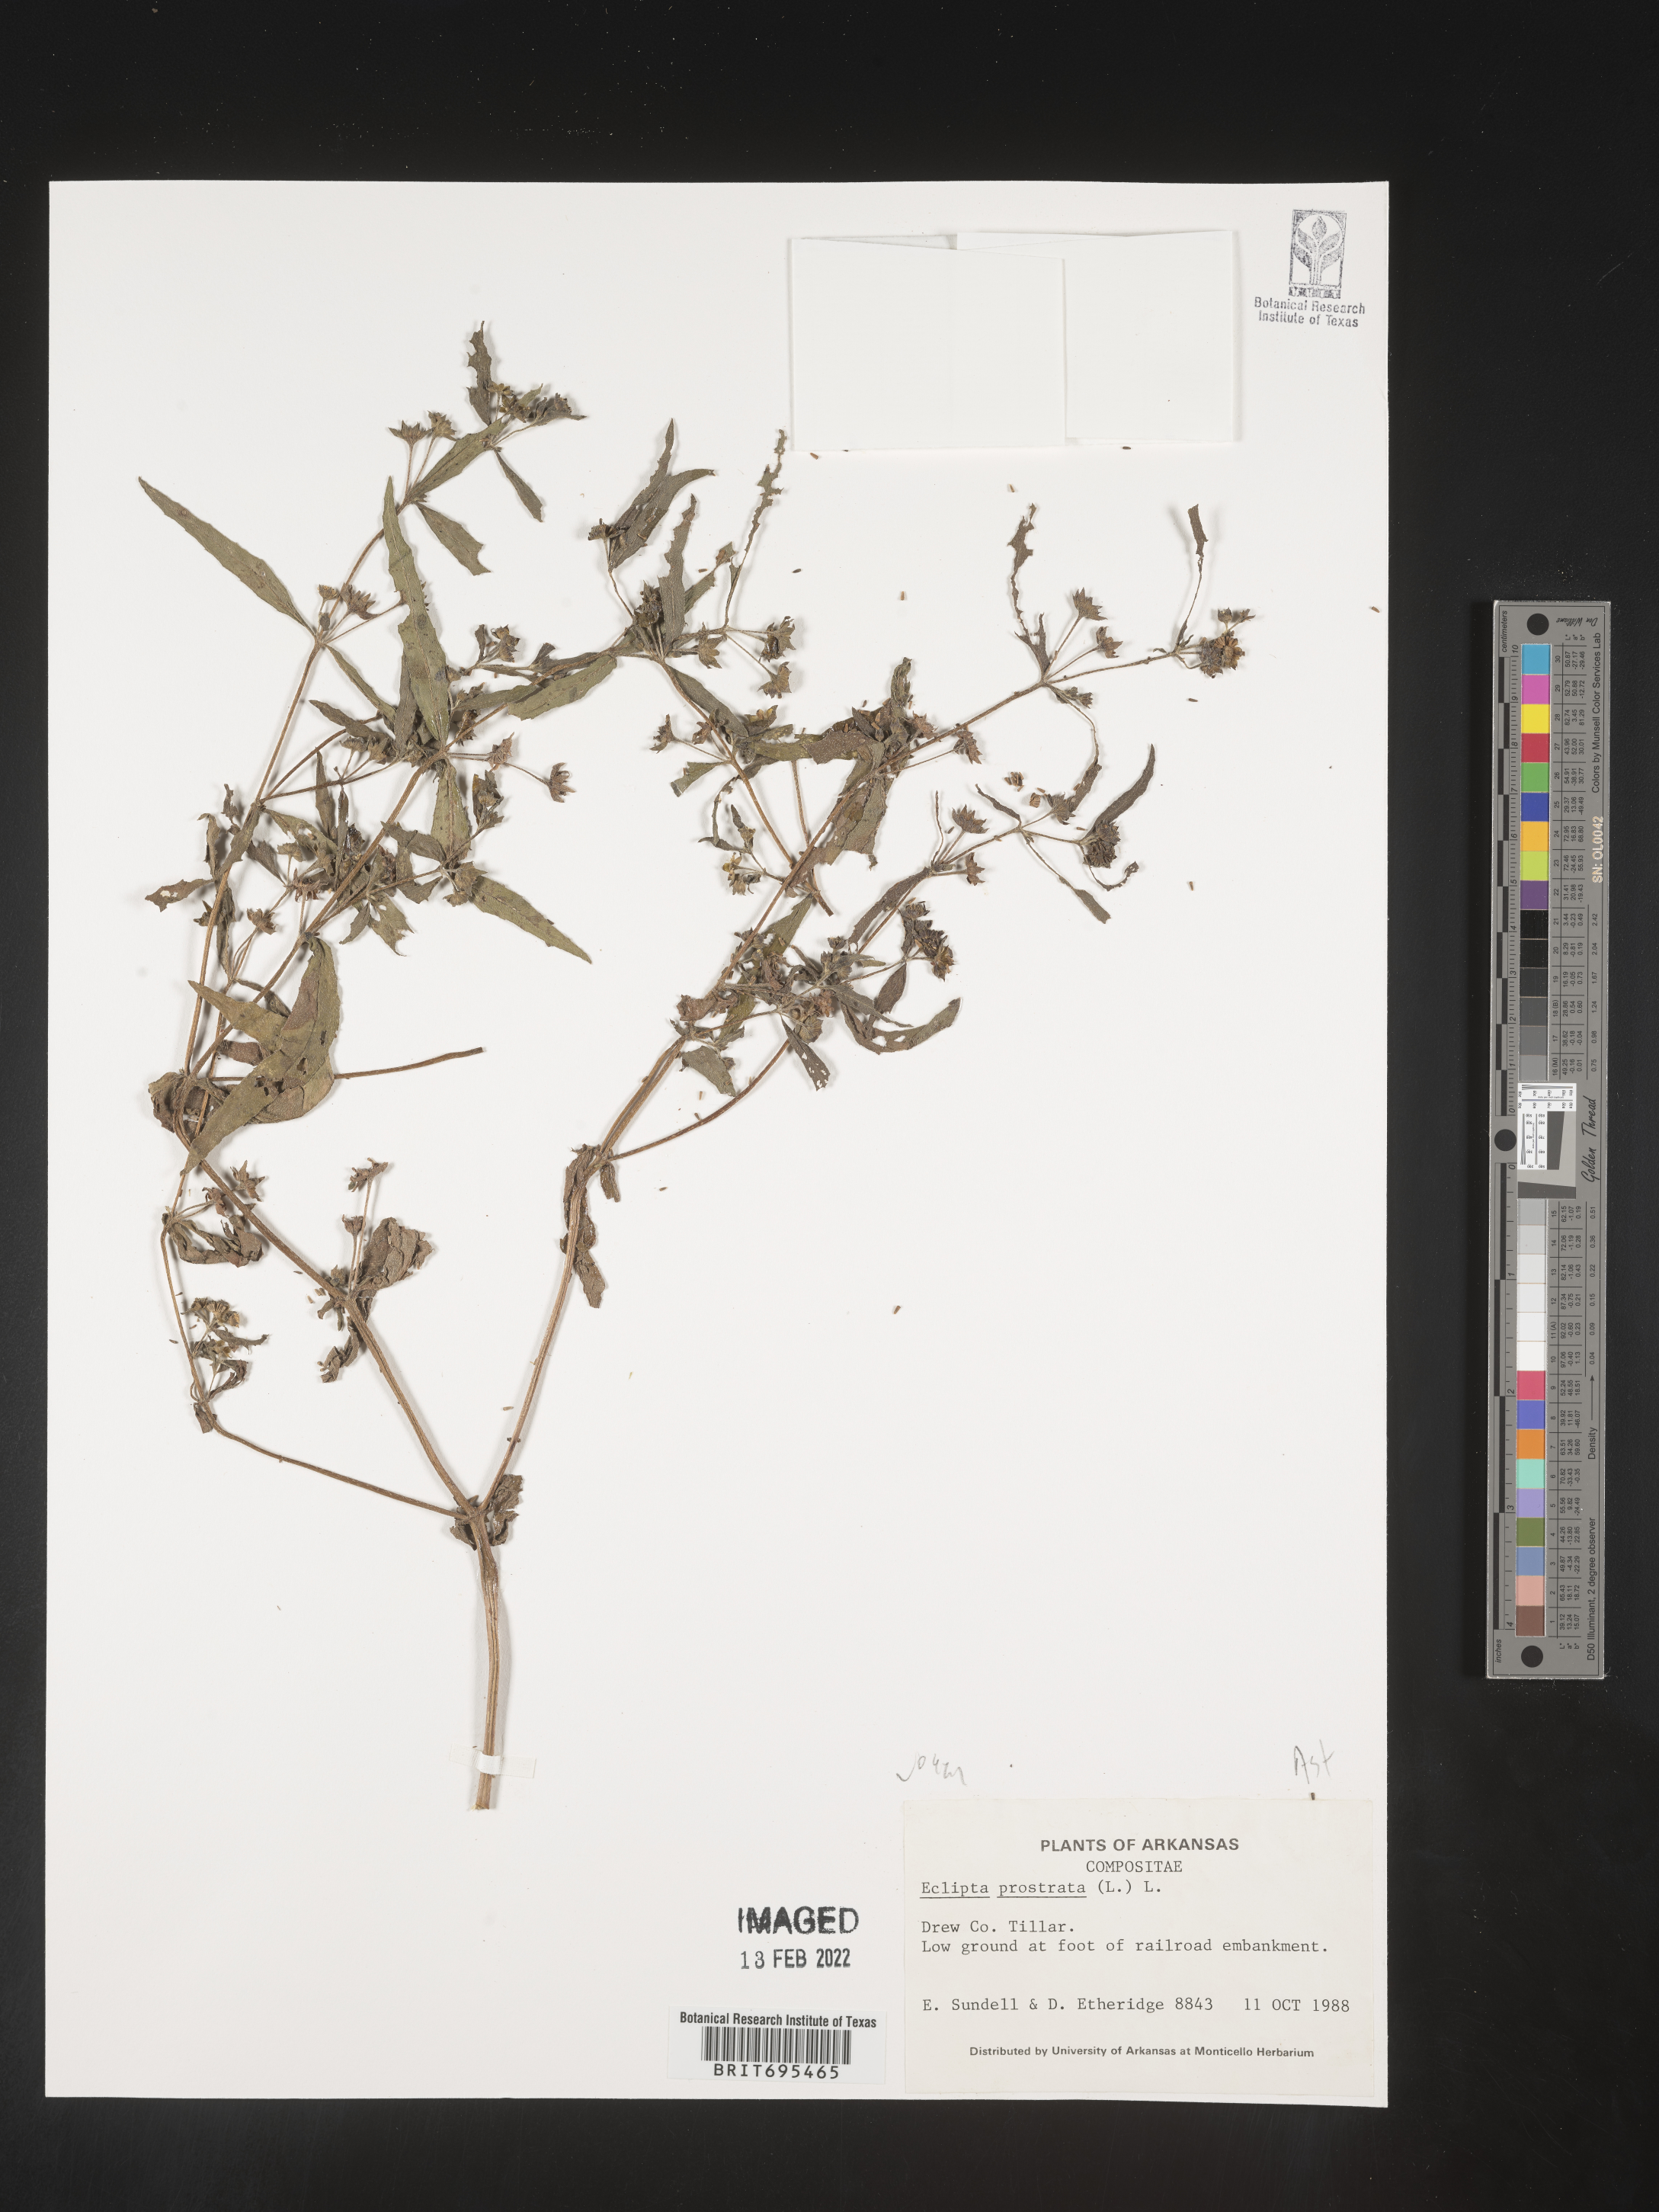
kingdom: Plantae
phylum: Tracheophyta
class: Magnoliopsida
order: Asterales
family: Asteraceae
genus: Eclipta
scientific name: Eclipta prostrata
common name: False daisy
